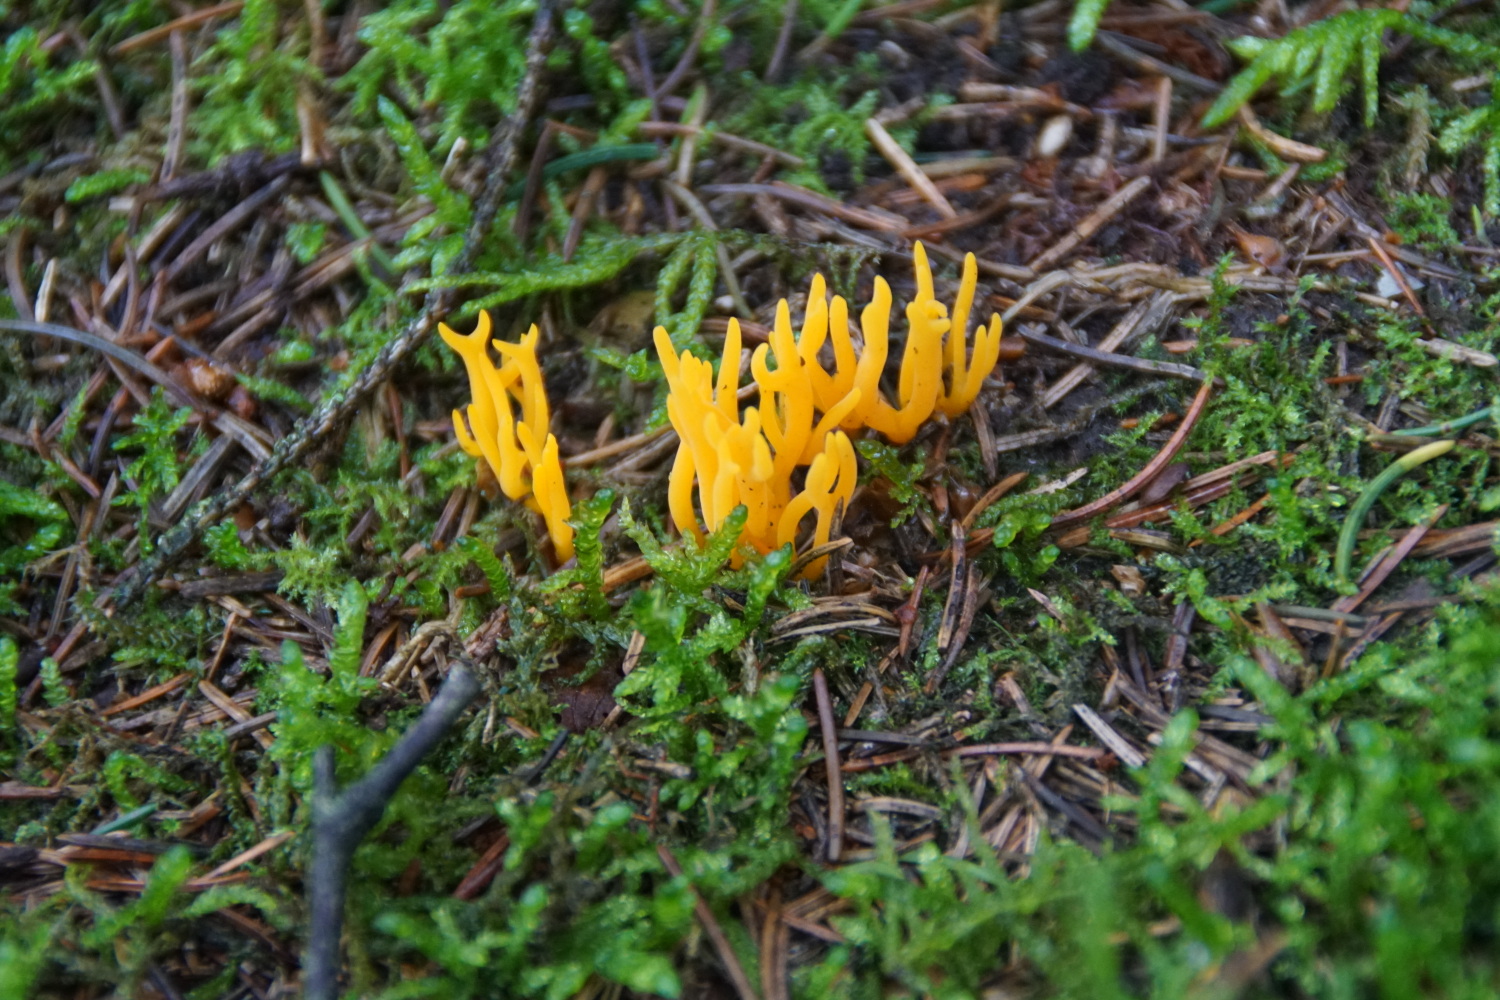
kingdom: Fungi
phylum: Basidiomycota
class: Dacrymycetes
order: Dacrymycetales
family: Dacrymycetaceae
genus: Calocera
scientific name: Calocera viscosa
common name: almindelig guldgaffel
